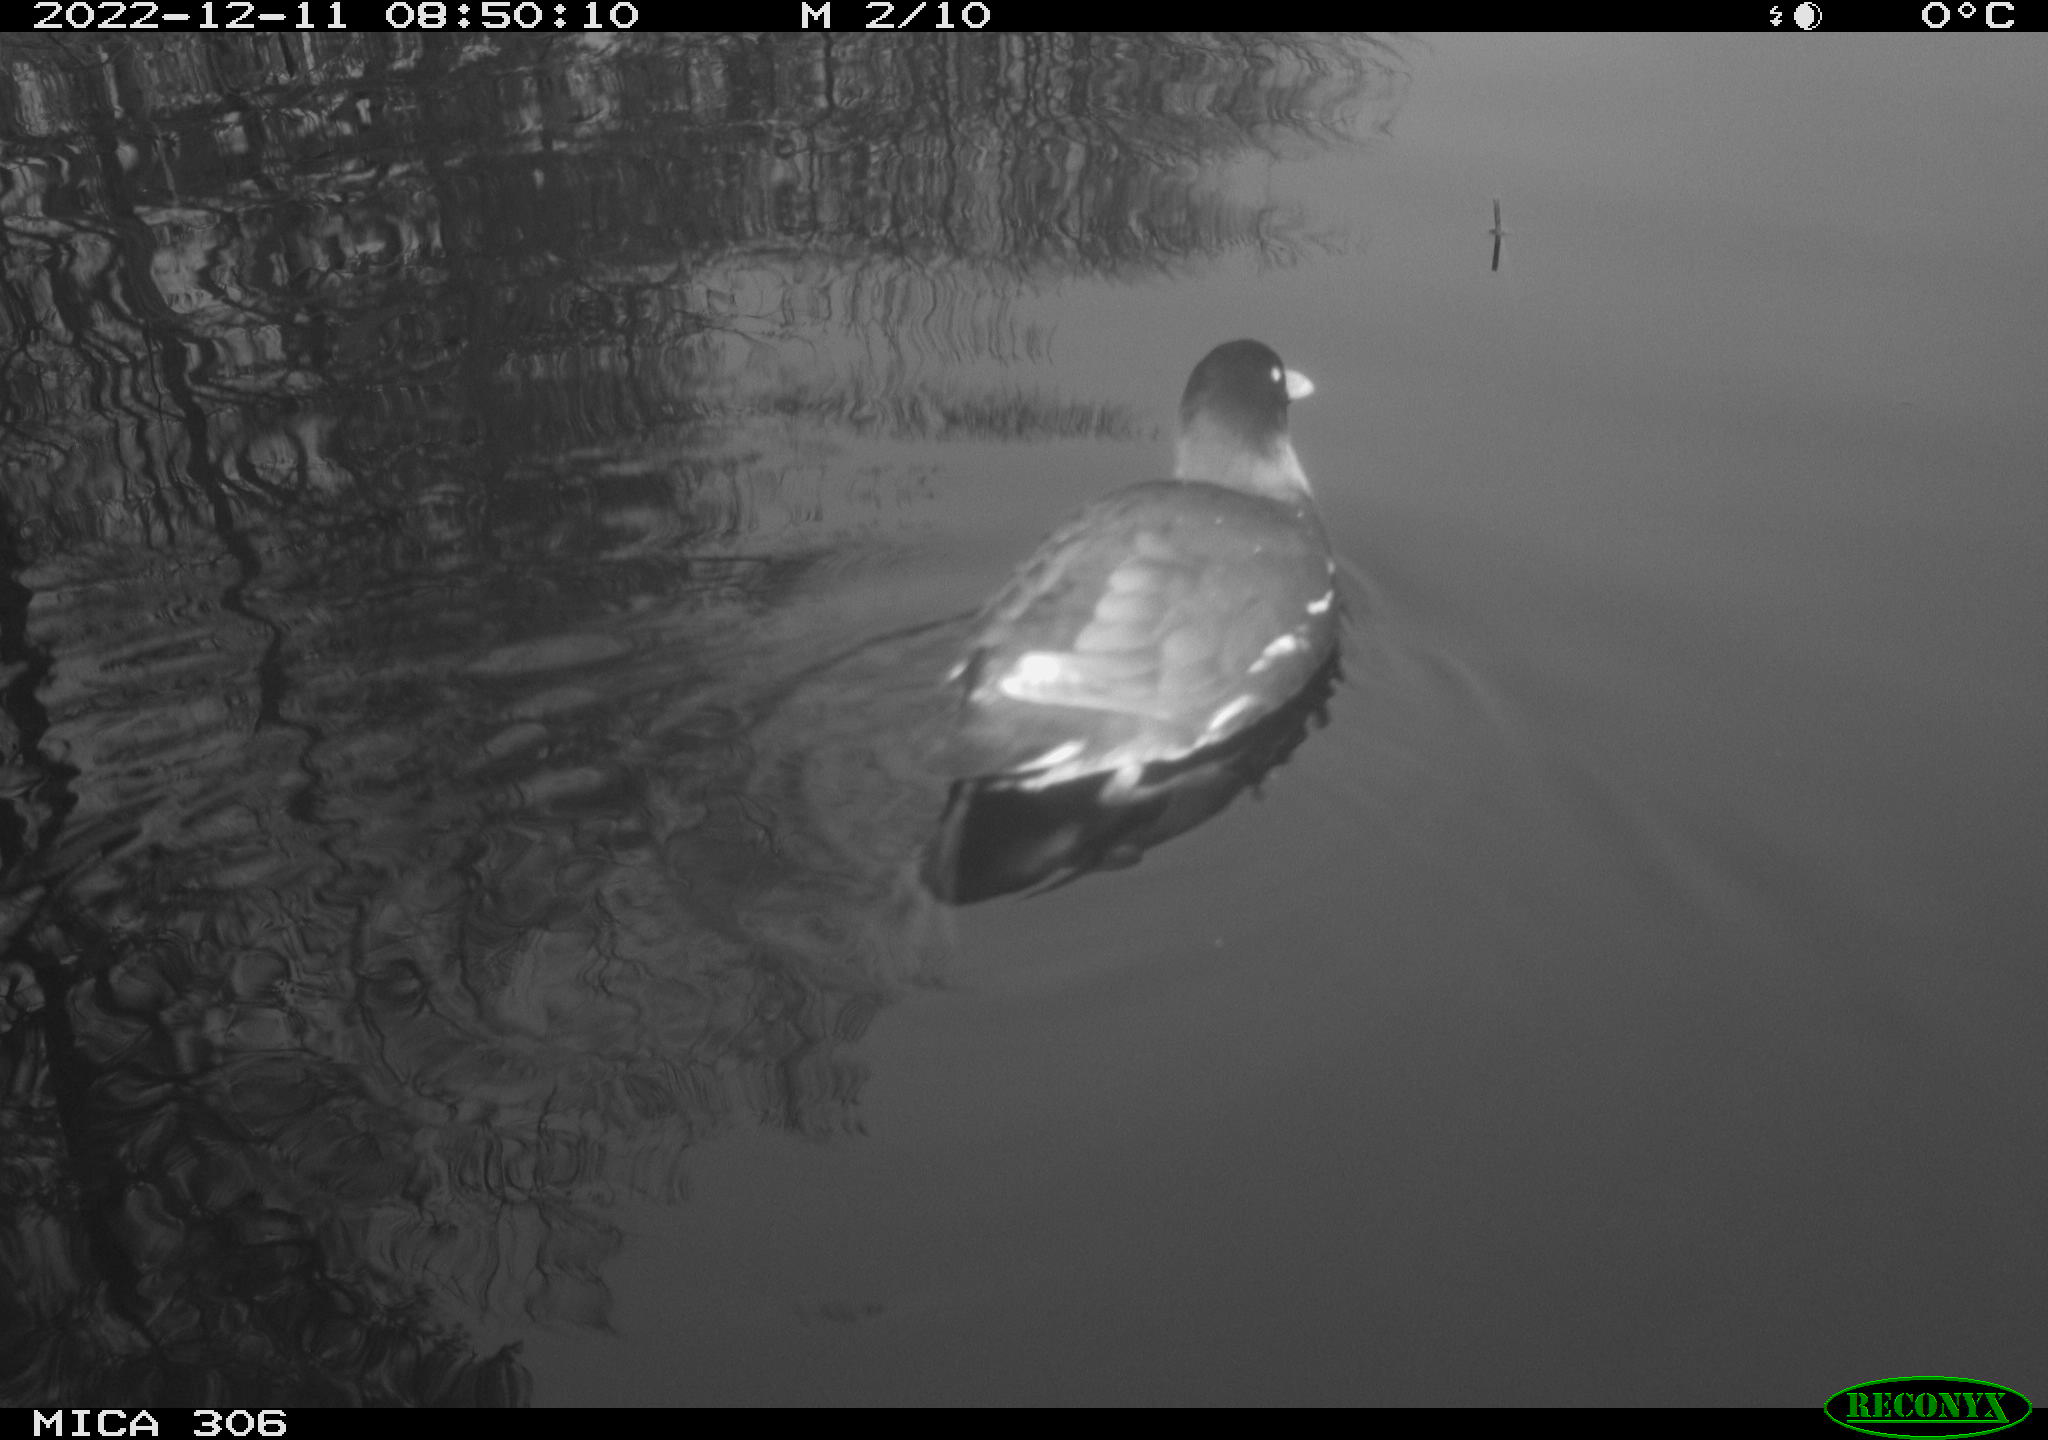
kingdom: Animalia
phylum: Chordata
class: Aves
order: Gruiformes
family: Rallidae
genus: Gallinula
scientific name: Gallinula chloropus
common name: Common moorhen
